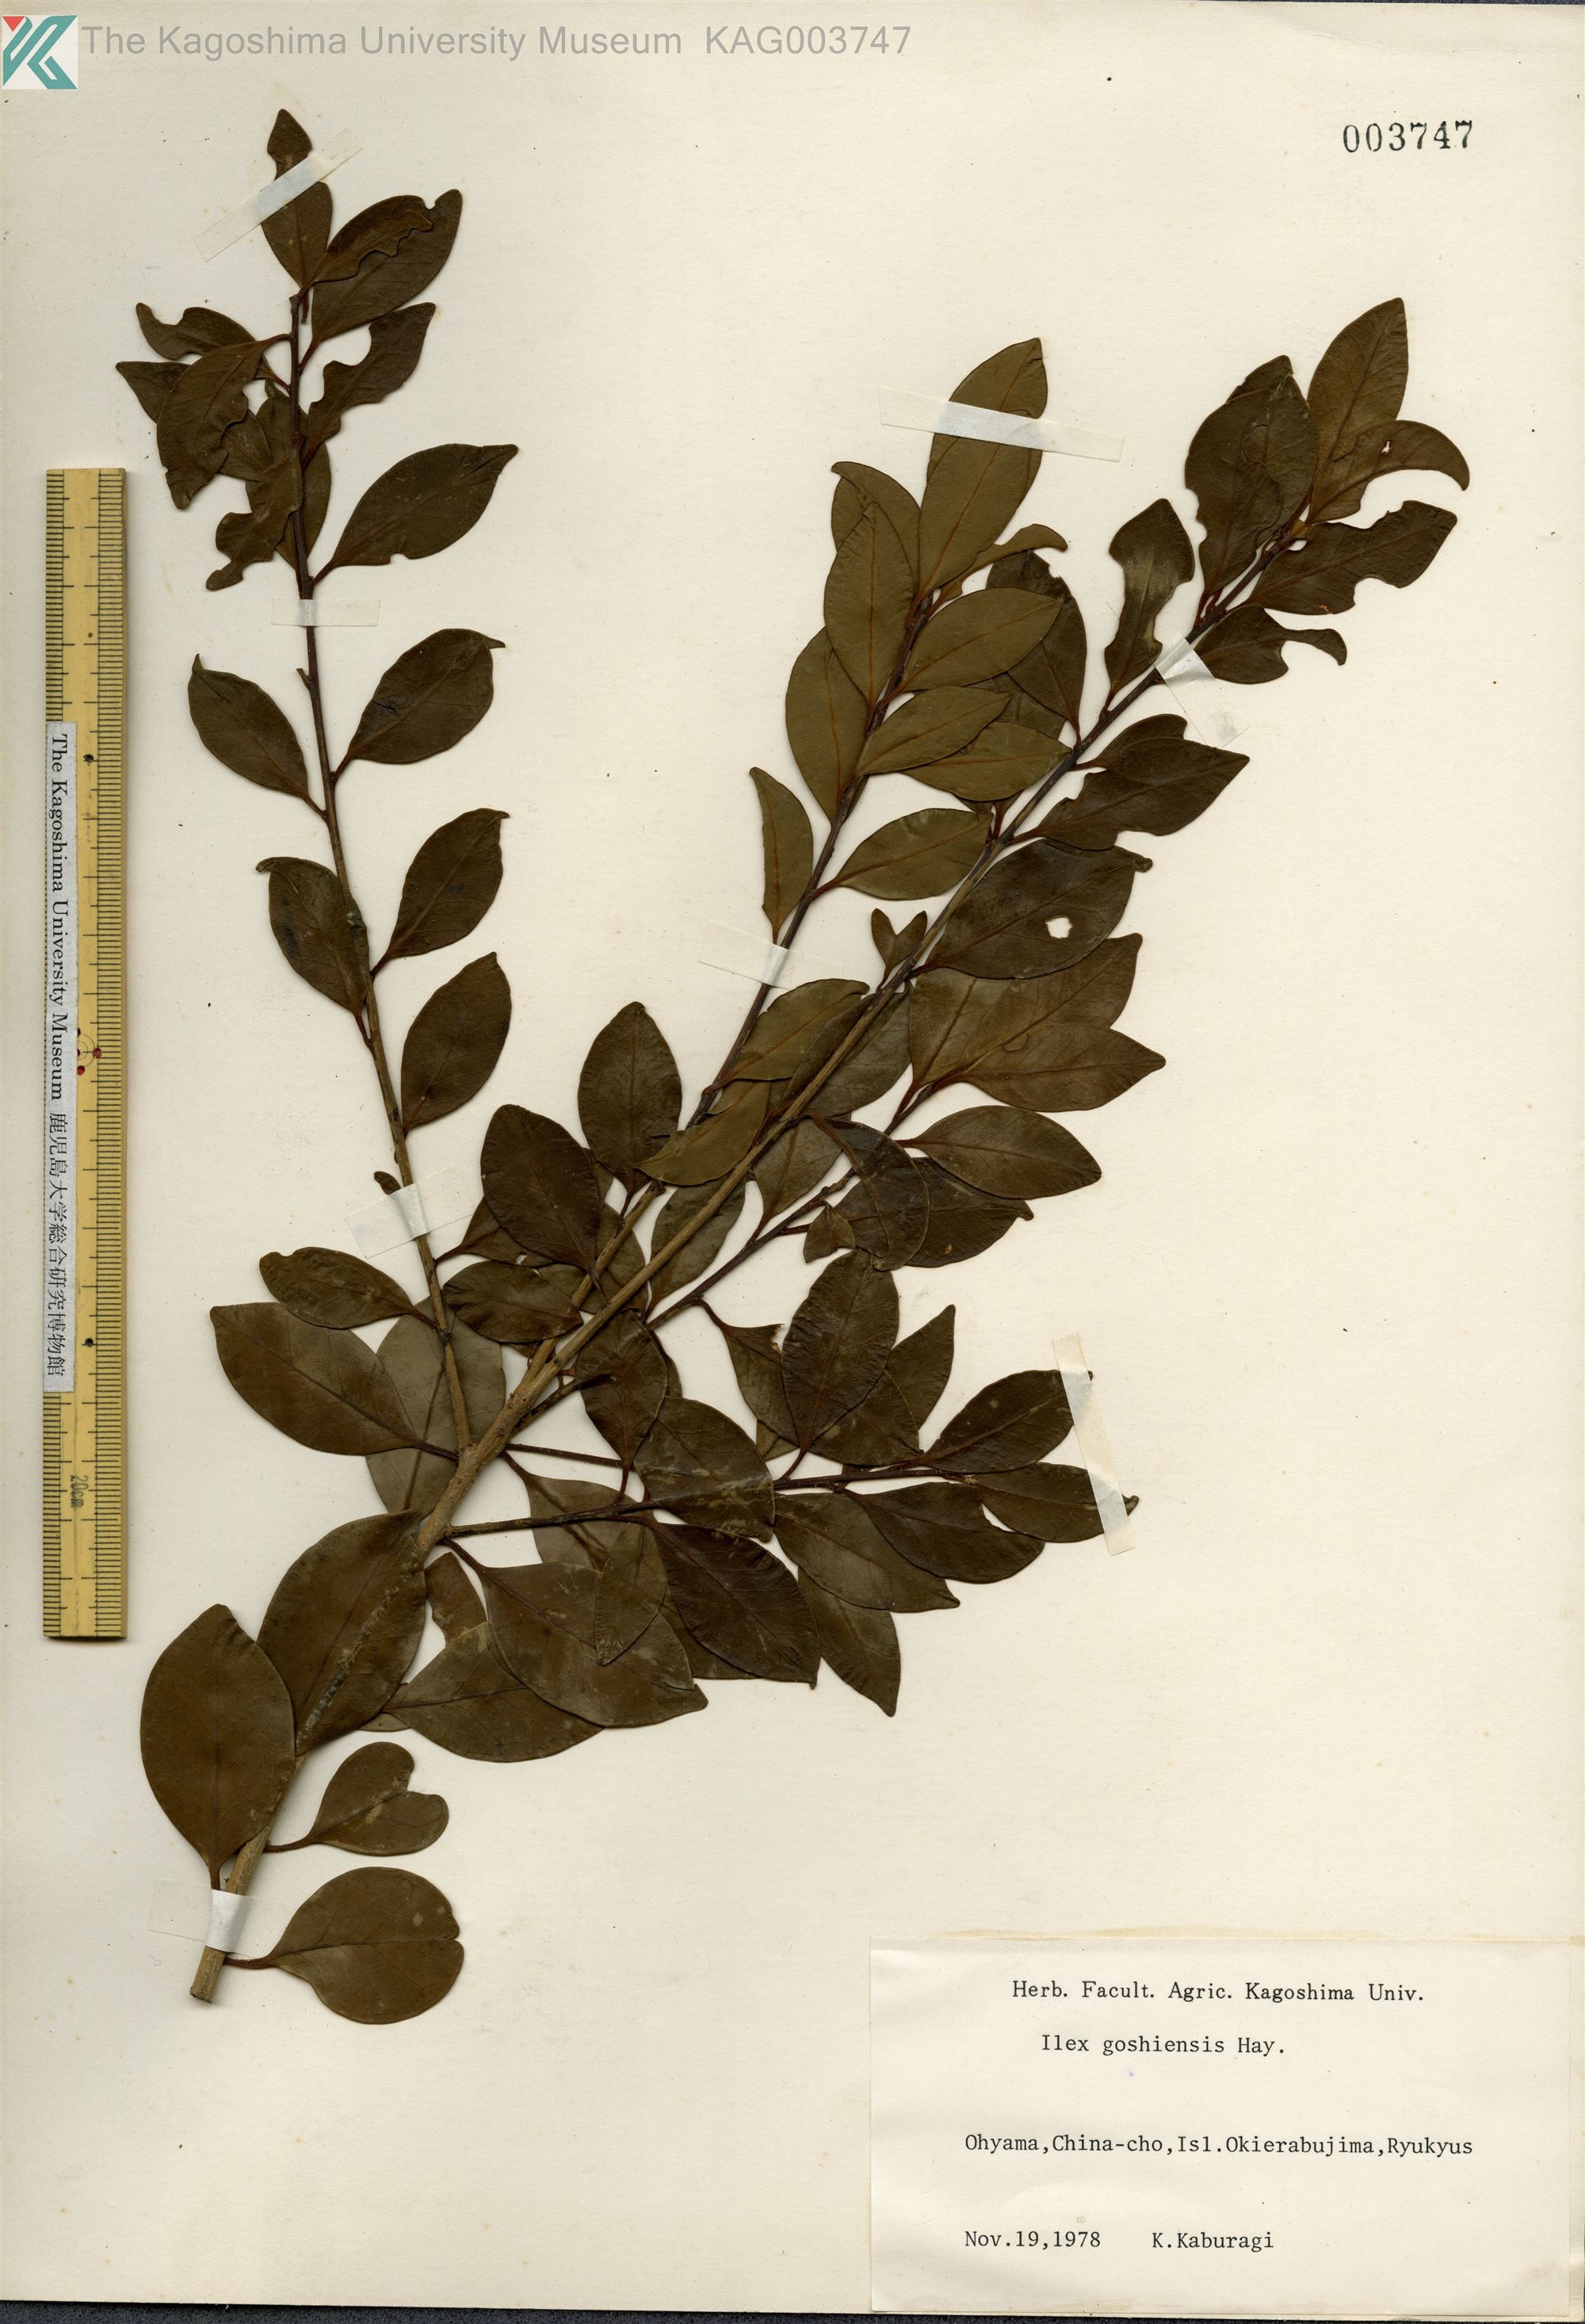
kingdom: Plantae
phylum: Tracheophyta
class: Magnoliopsida
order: Aquifoliales
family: Aquifoliaceae
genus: Ilex
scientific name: Ilex goshiensis
